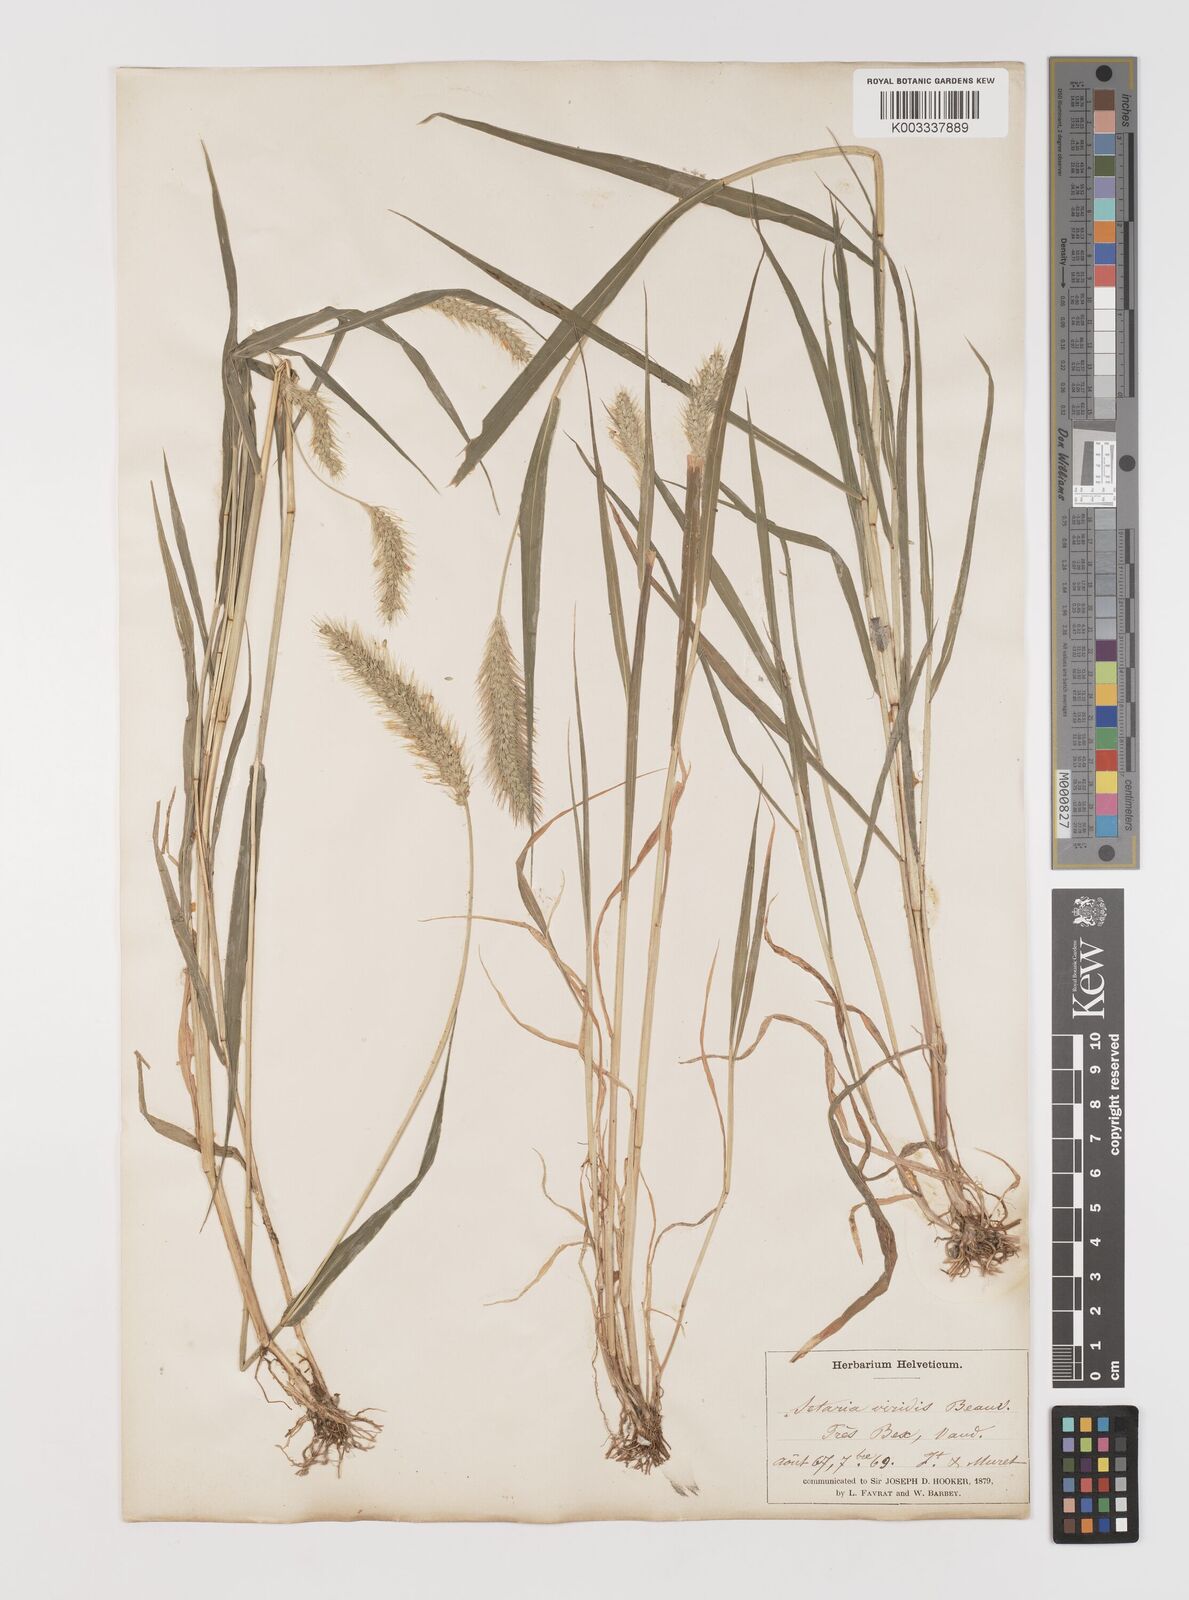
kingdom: Plantae
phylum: Tracheophyta
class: Liliopsida
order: Poales
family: Poaceae
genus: Setaria
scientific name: Setaria viridis
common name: Green bristlegrass
